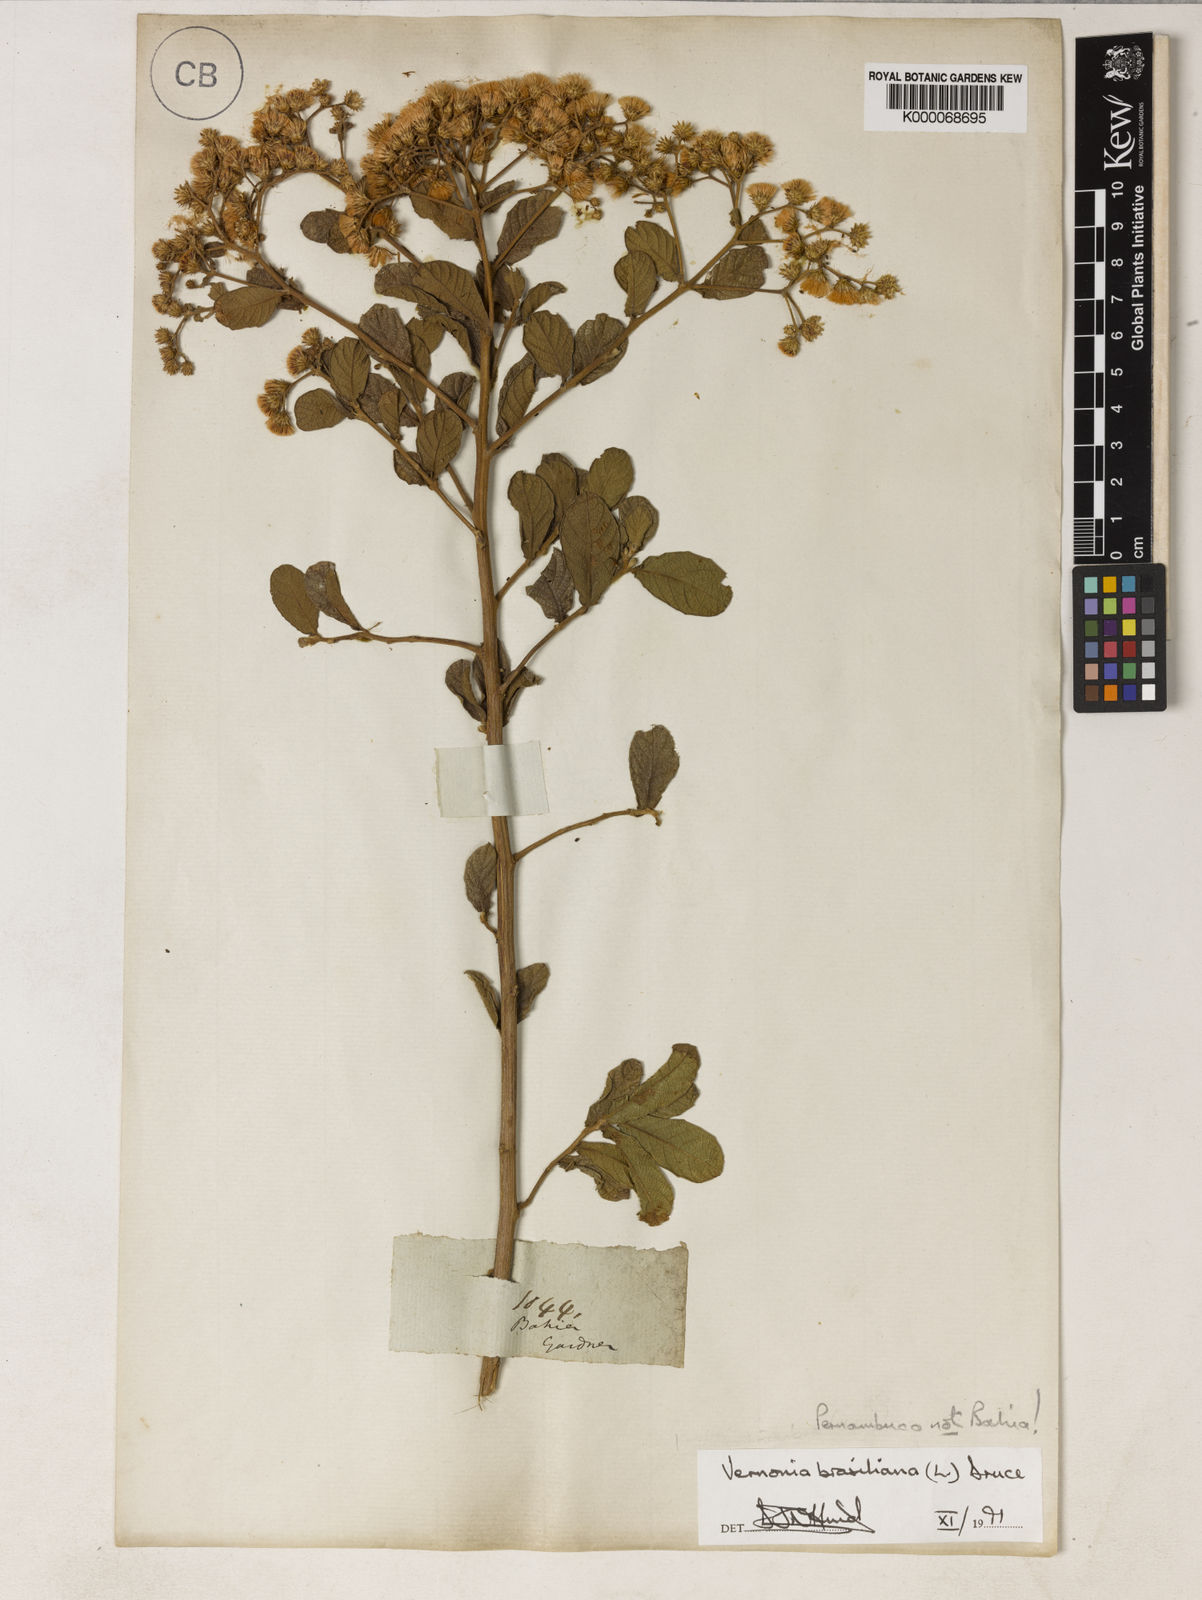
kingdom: Plantae
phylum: Tracheophyta
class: Magnoliopsida
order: Asterales
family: Asteraceae
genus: Vernonanthura
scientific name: Vernonanthura brasiliana
